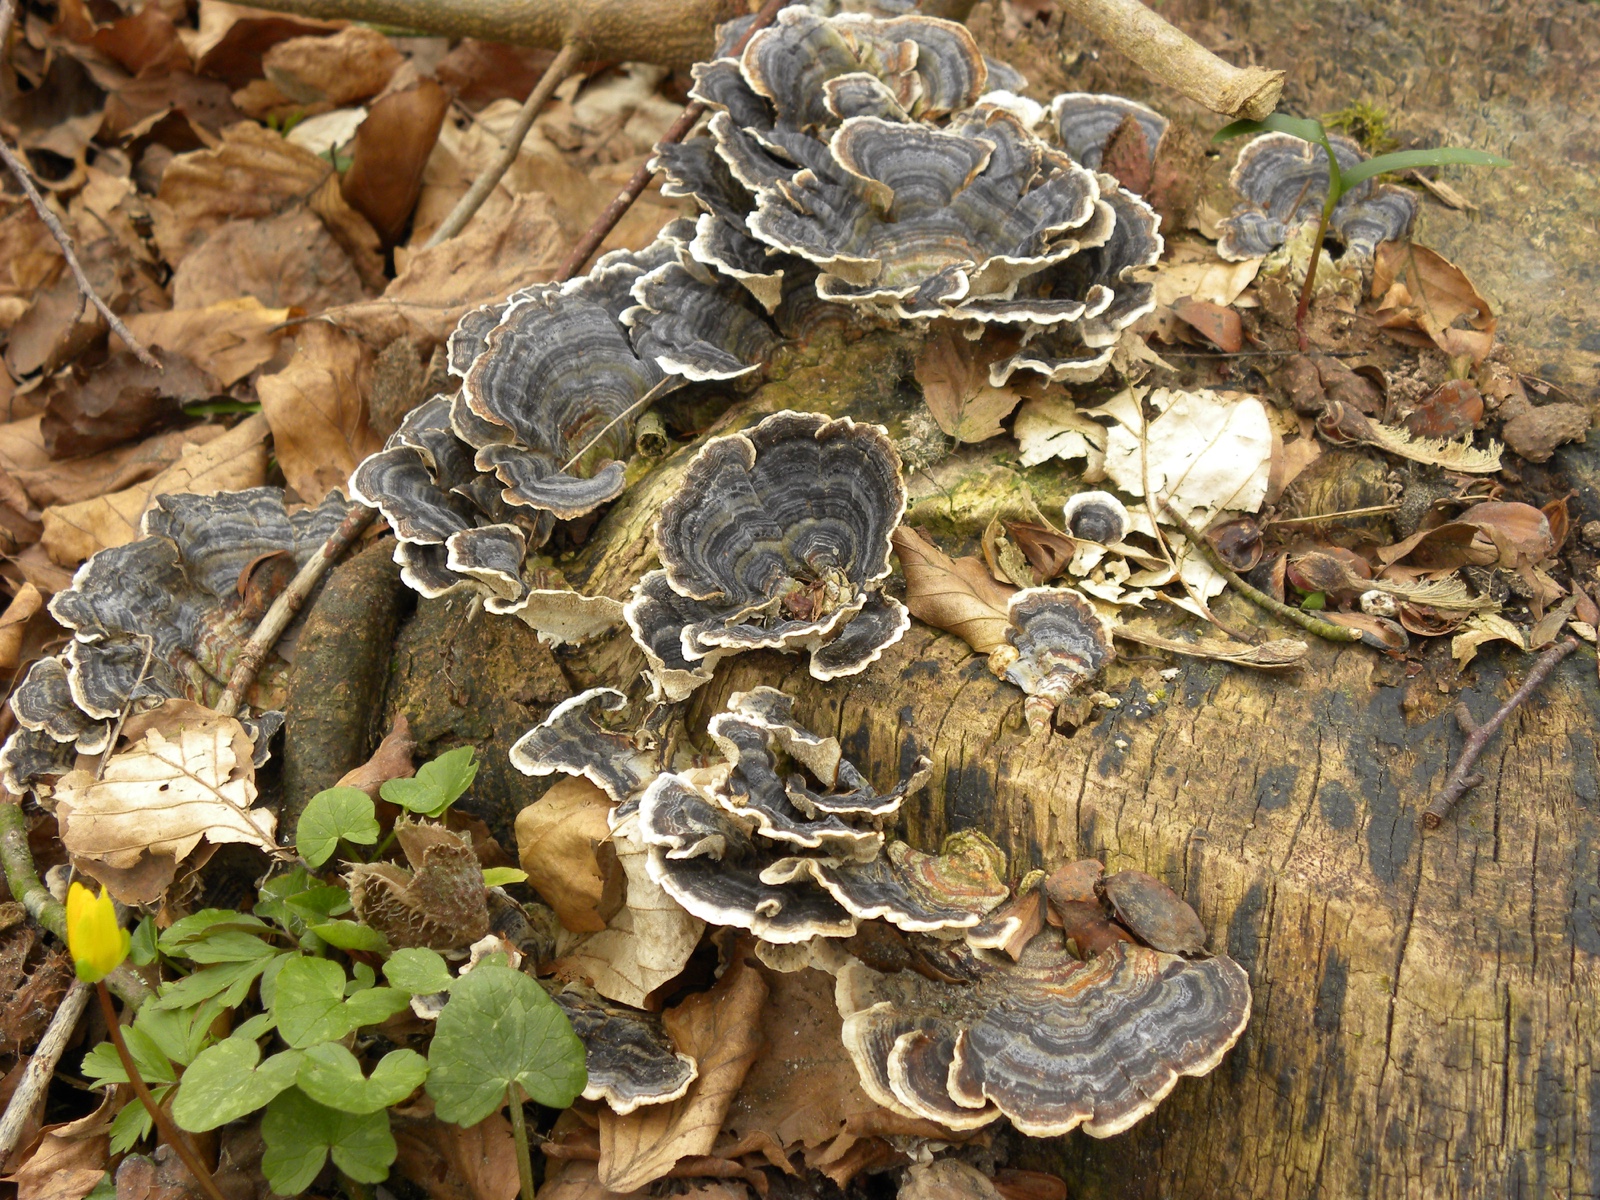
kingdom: Fungi
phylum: Basidiomycota
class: Agaricomycetes
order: Polyporales
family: Polyporaceae
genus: Trametes
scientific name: Trametes versicolor
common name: broget læderporesvamp
